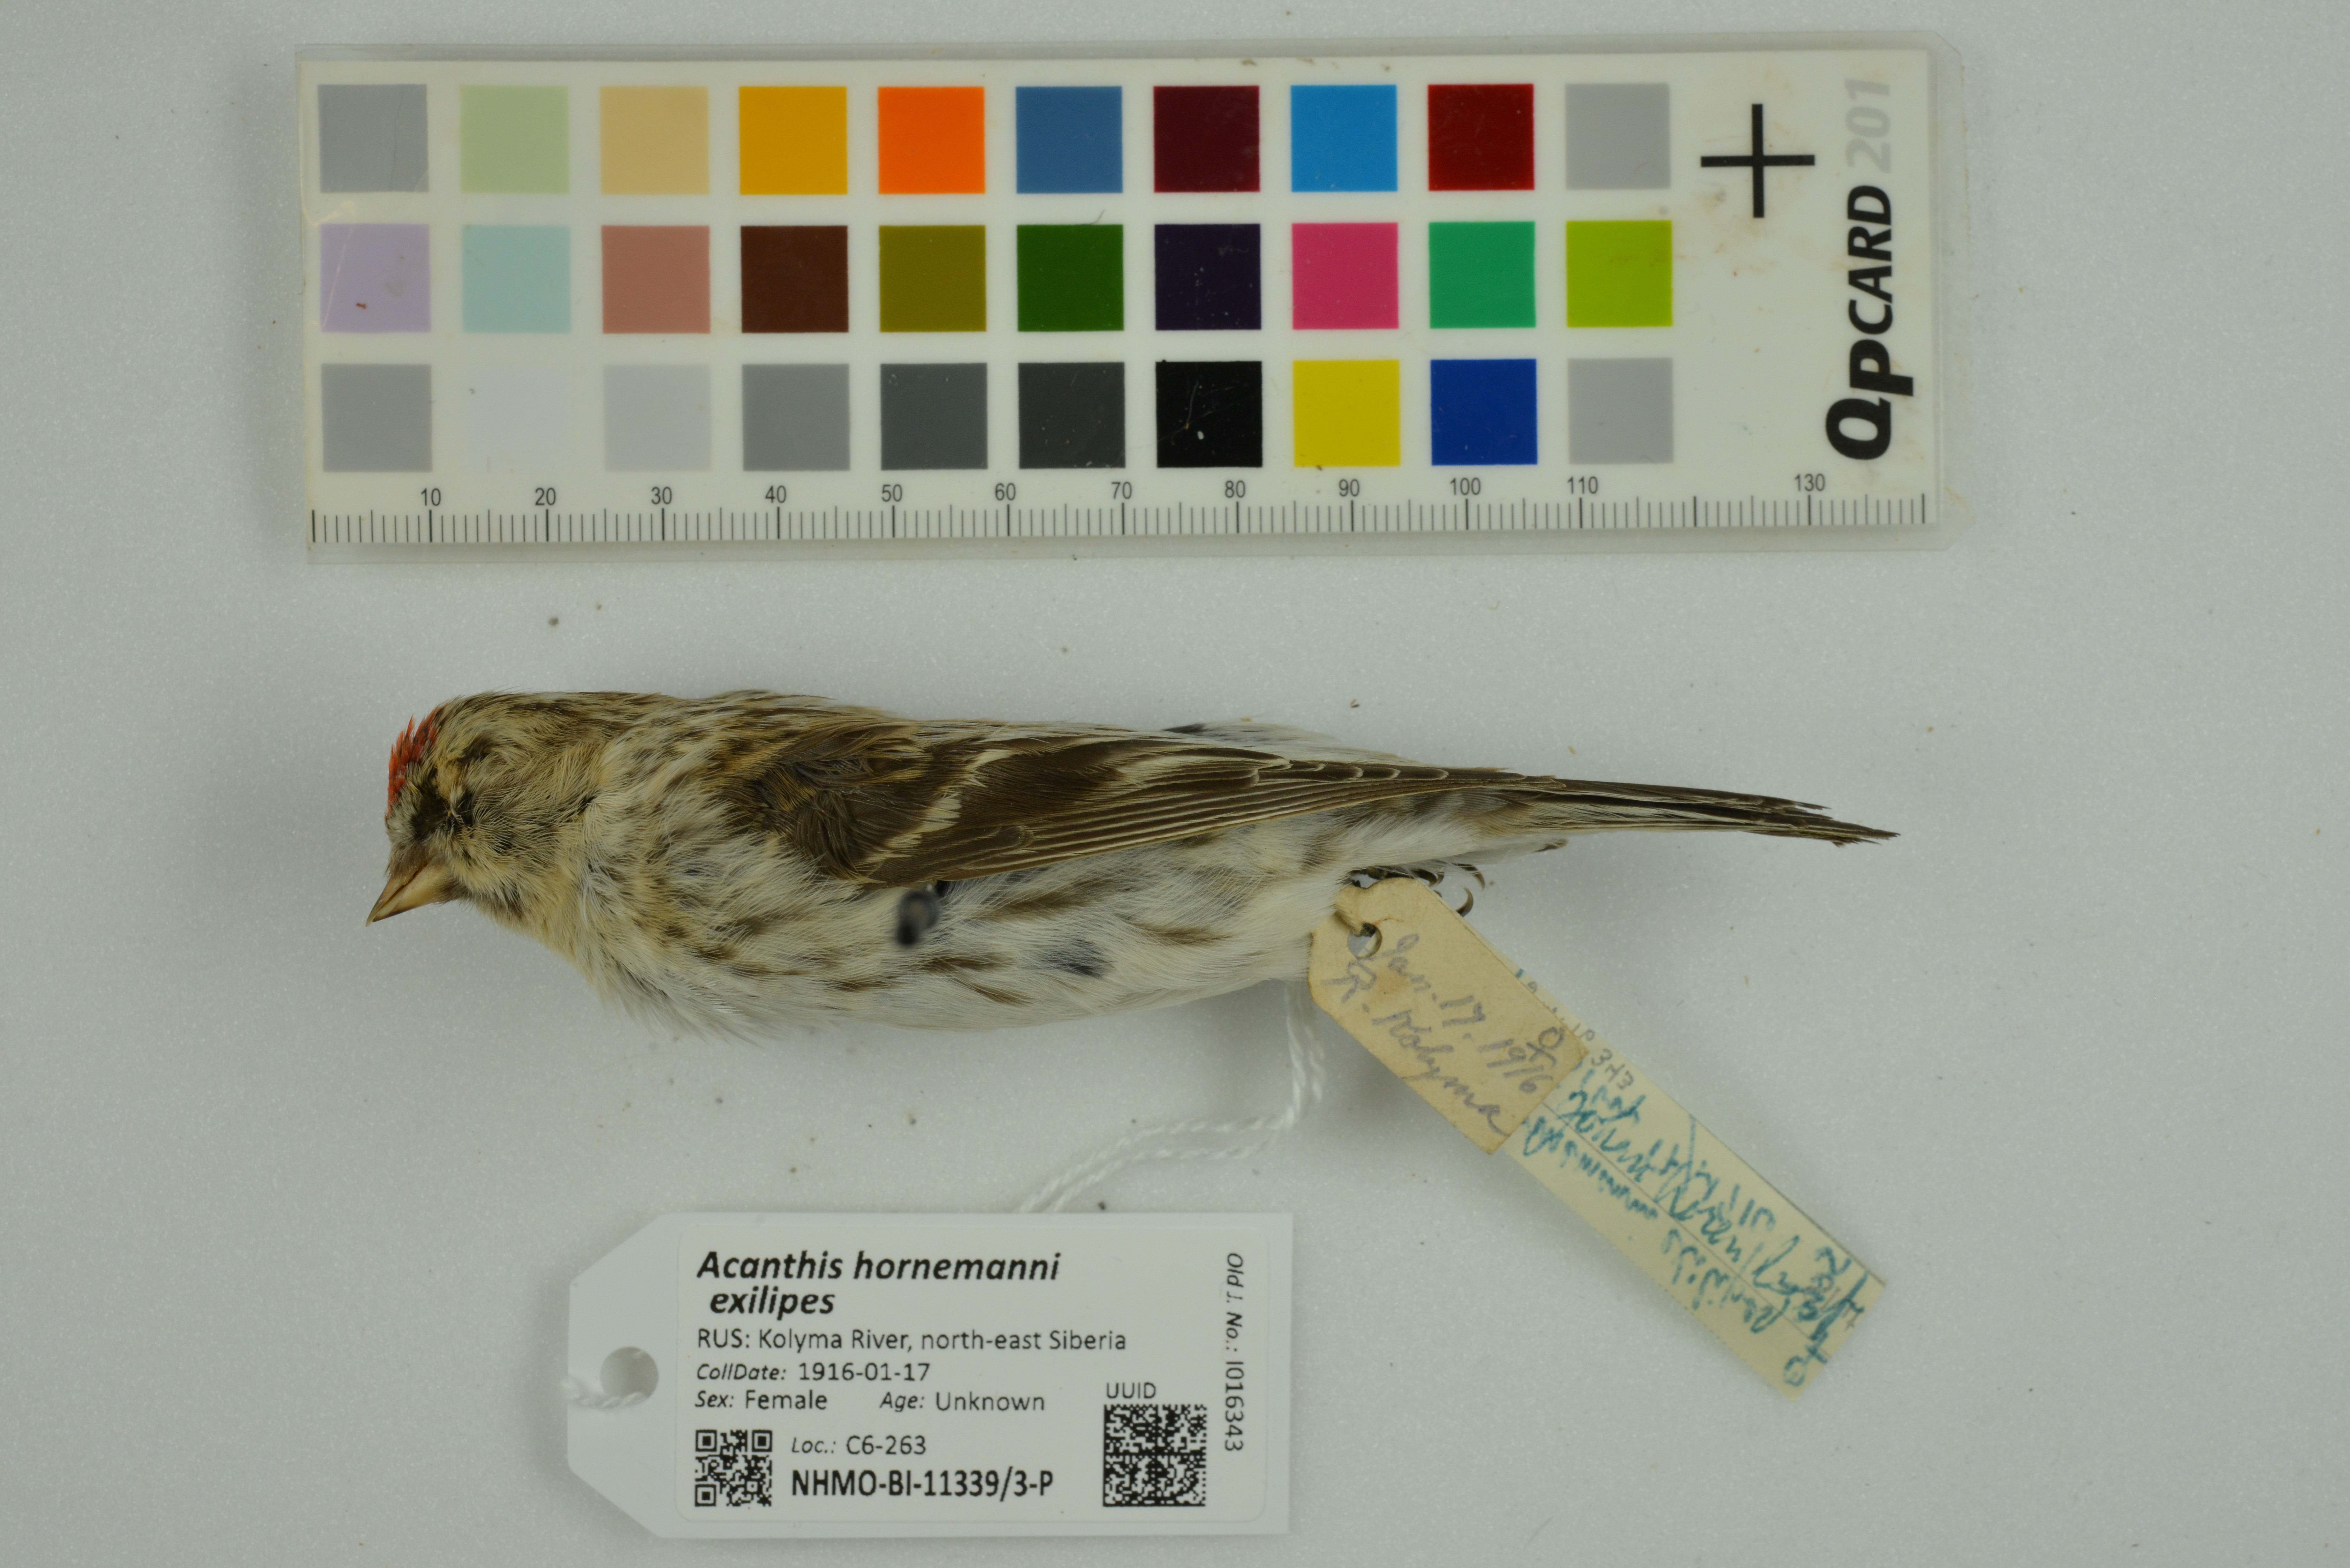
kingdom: Animalia
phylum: Chordata
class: Aves
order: Passeriformes
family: Fringillidae
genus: Acanthis
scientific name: Acanthis hornemanni
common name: Arctic redpoll
